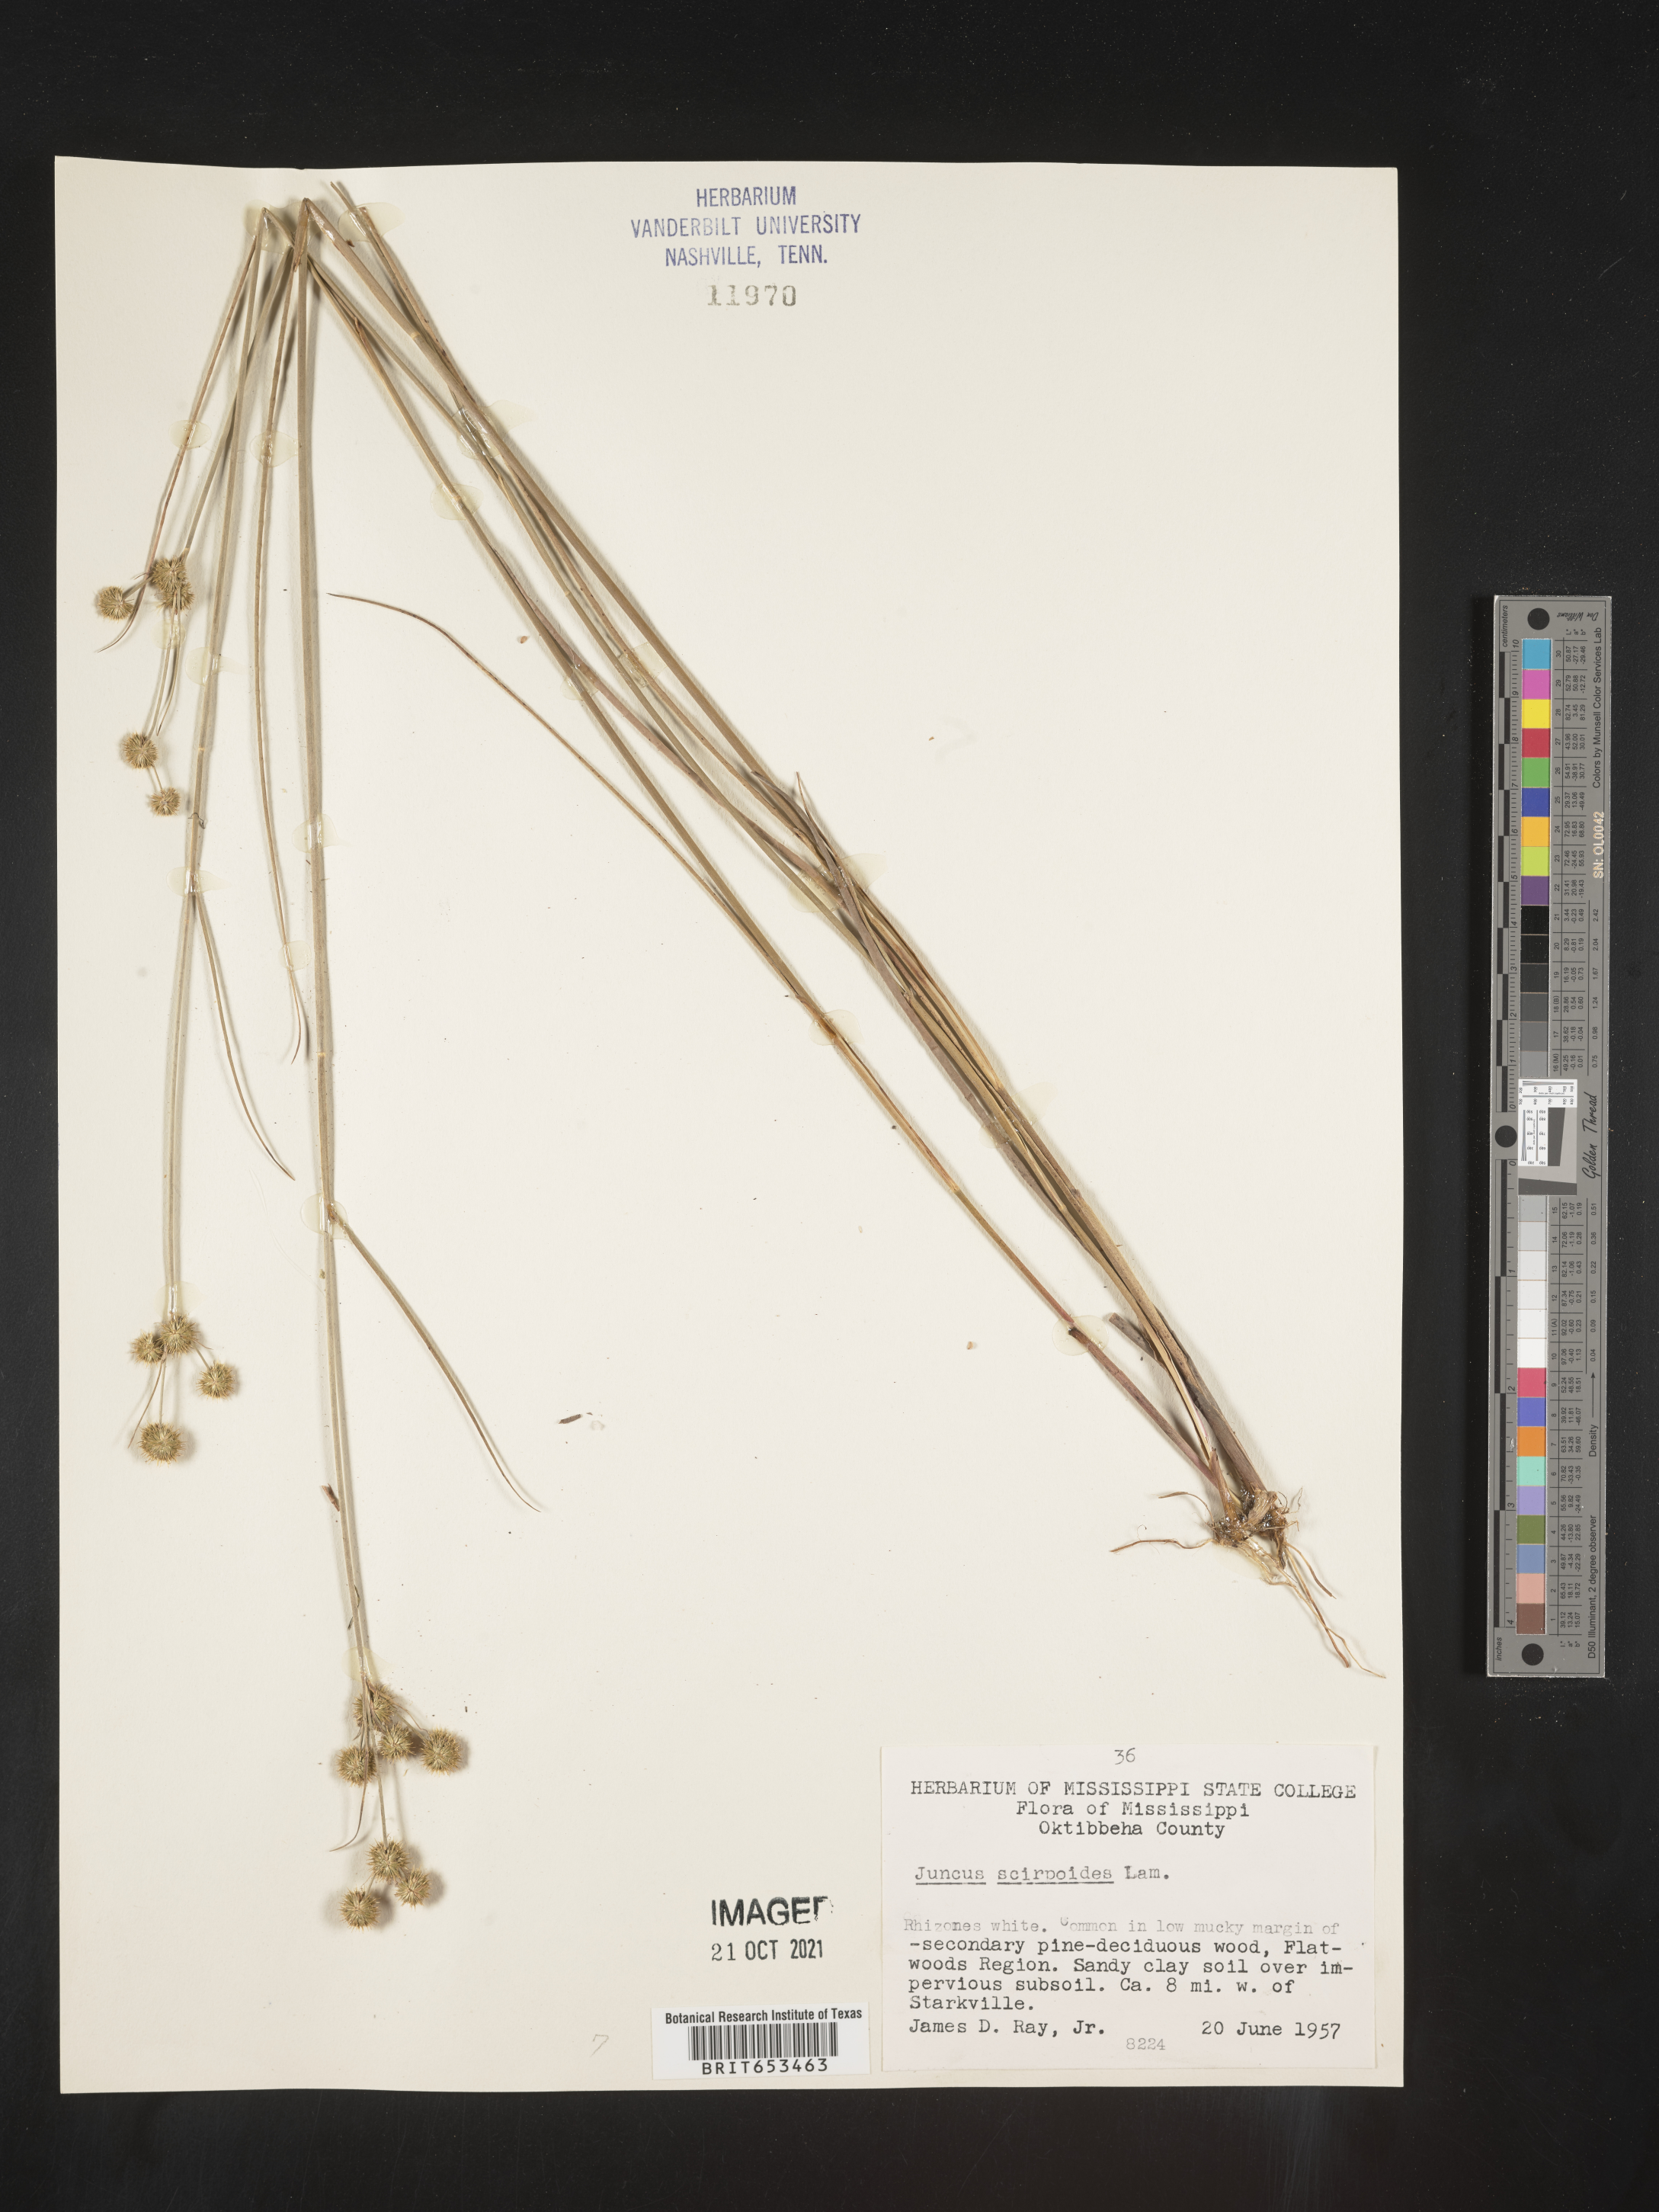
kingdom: Plantae
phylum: Tracheophyta
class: Liliopsida
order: Poales
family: Juncaceae
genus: Juncus
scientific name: Juncus scirpoides
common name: Needlepod rush
